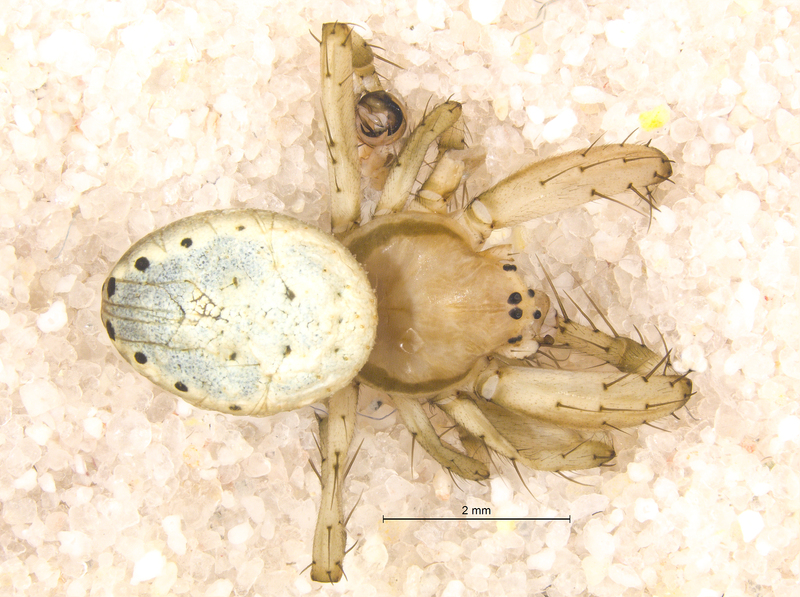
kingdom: Animalia
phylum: Arthropoda
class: Arachnida
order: Araneae
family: Araneidae
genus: Araniella
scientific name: Araniella cucurbitina
